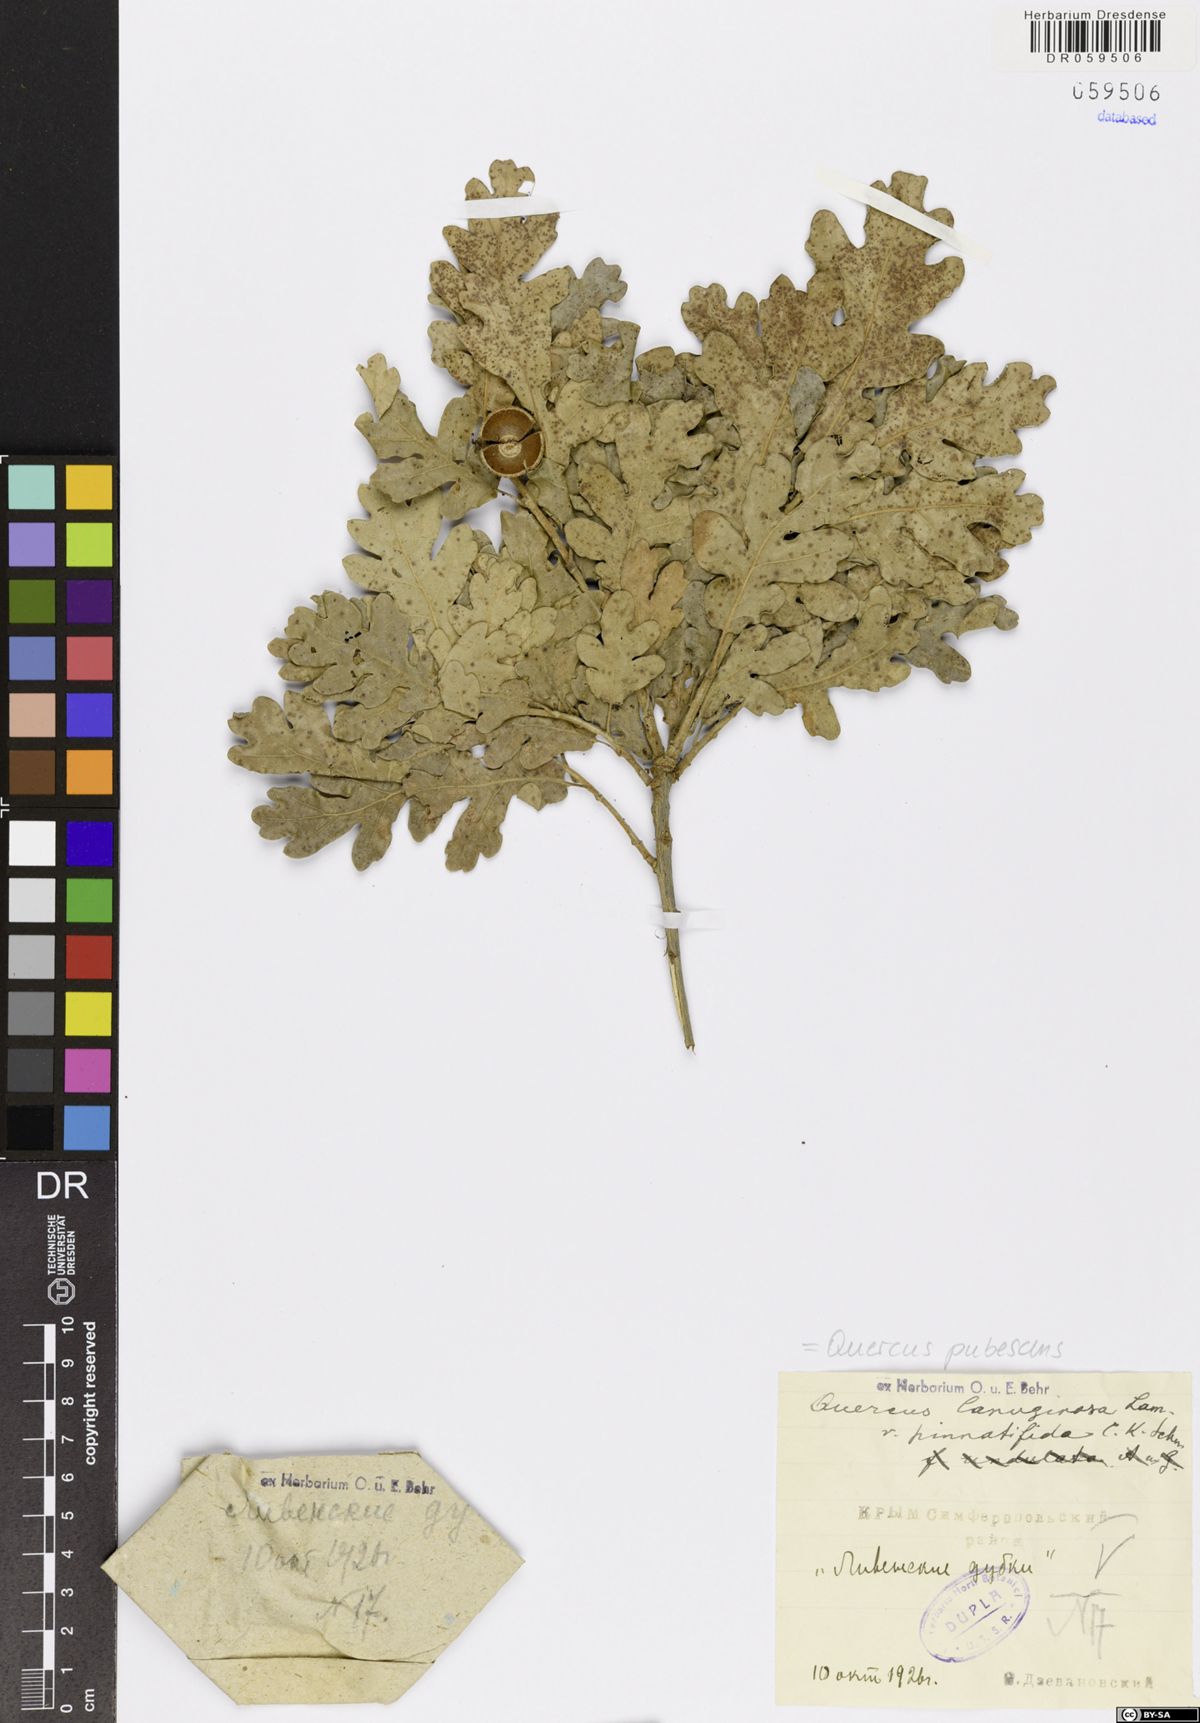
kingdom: Plantae
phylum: Tracheophyta
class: Magnoliopsida
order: Fagales
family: Fagaceae
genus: Quercus
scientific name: Quercus pubescens
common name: Downy oak
